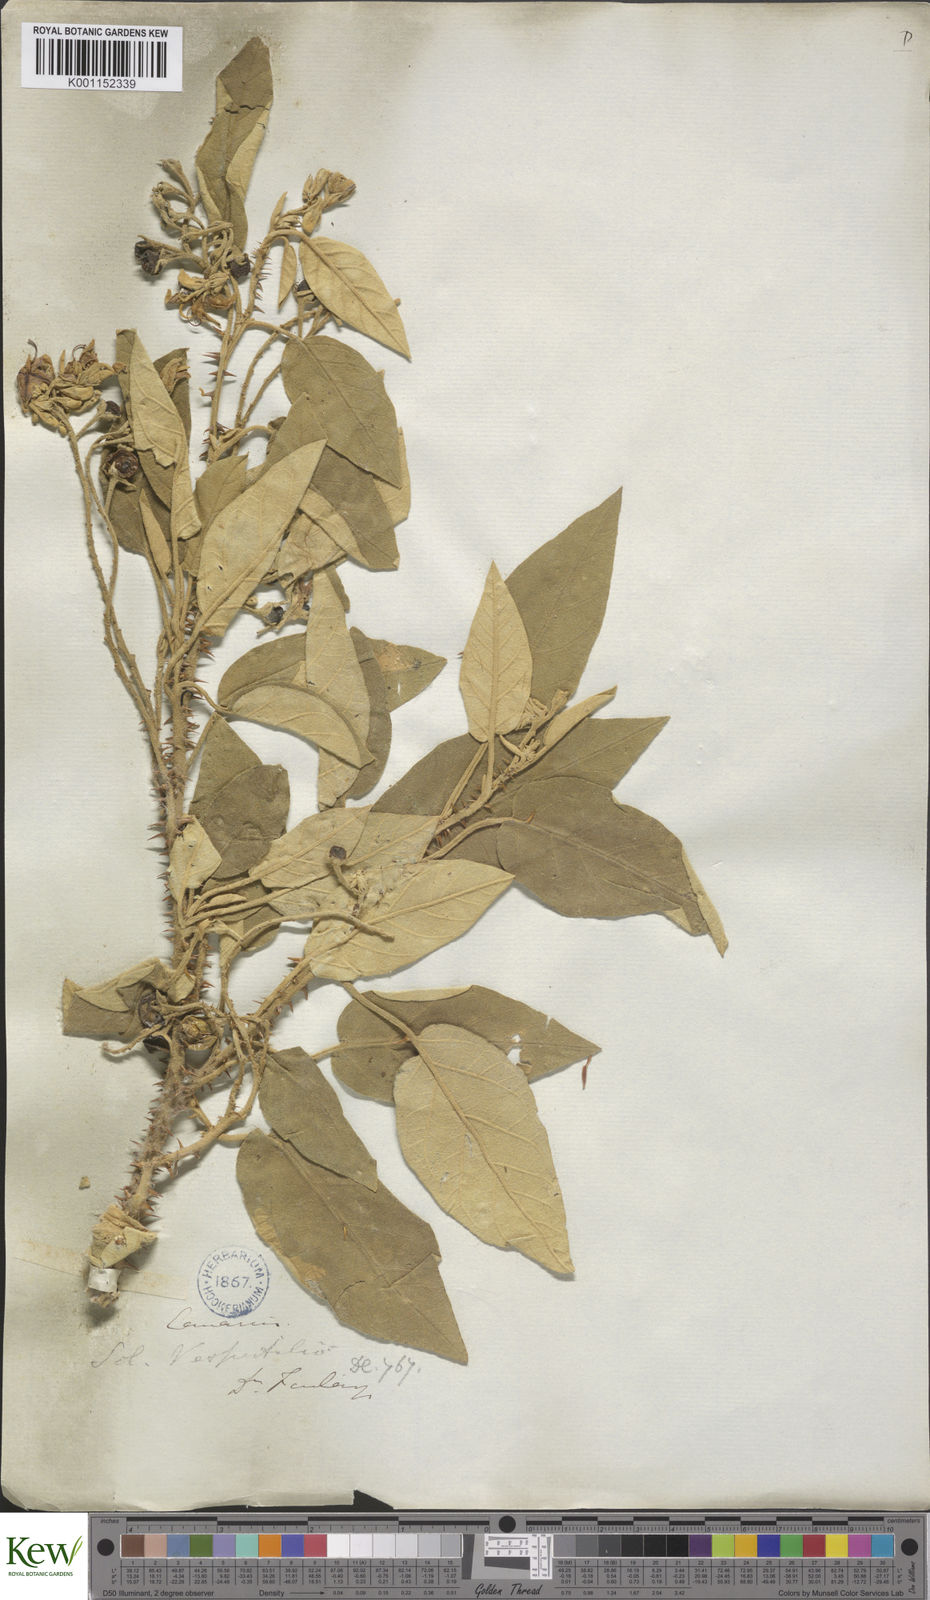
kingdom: Plantae
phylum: Tracheophyta
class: Magnoliopsida
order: Solanales
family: Solanaceae
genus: Solanum
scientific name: Solanum vespertilio
